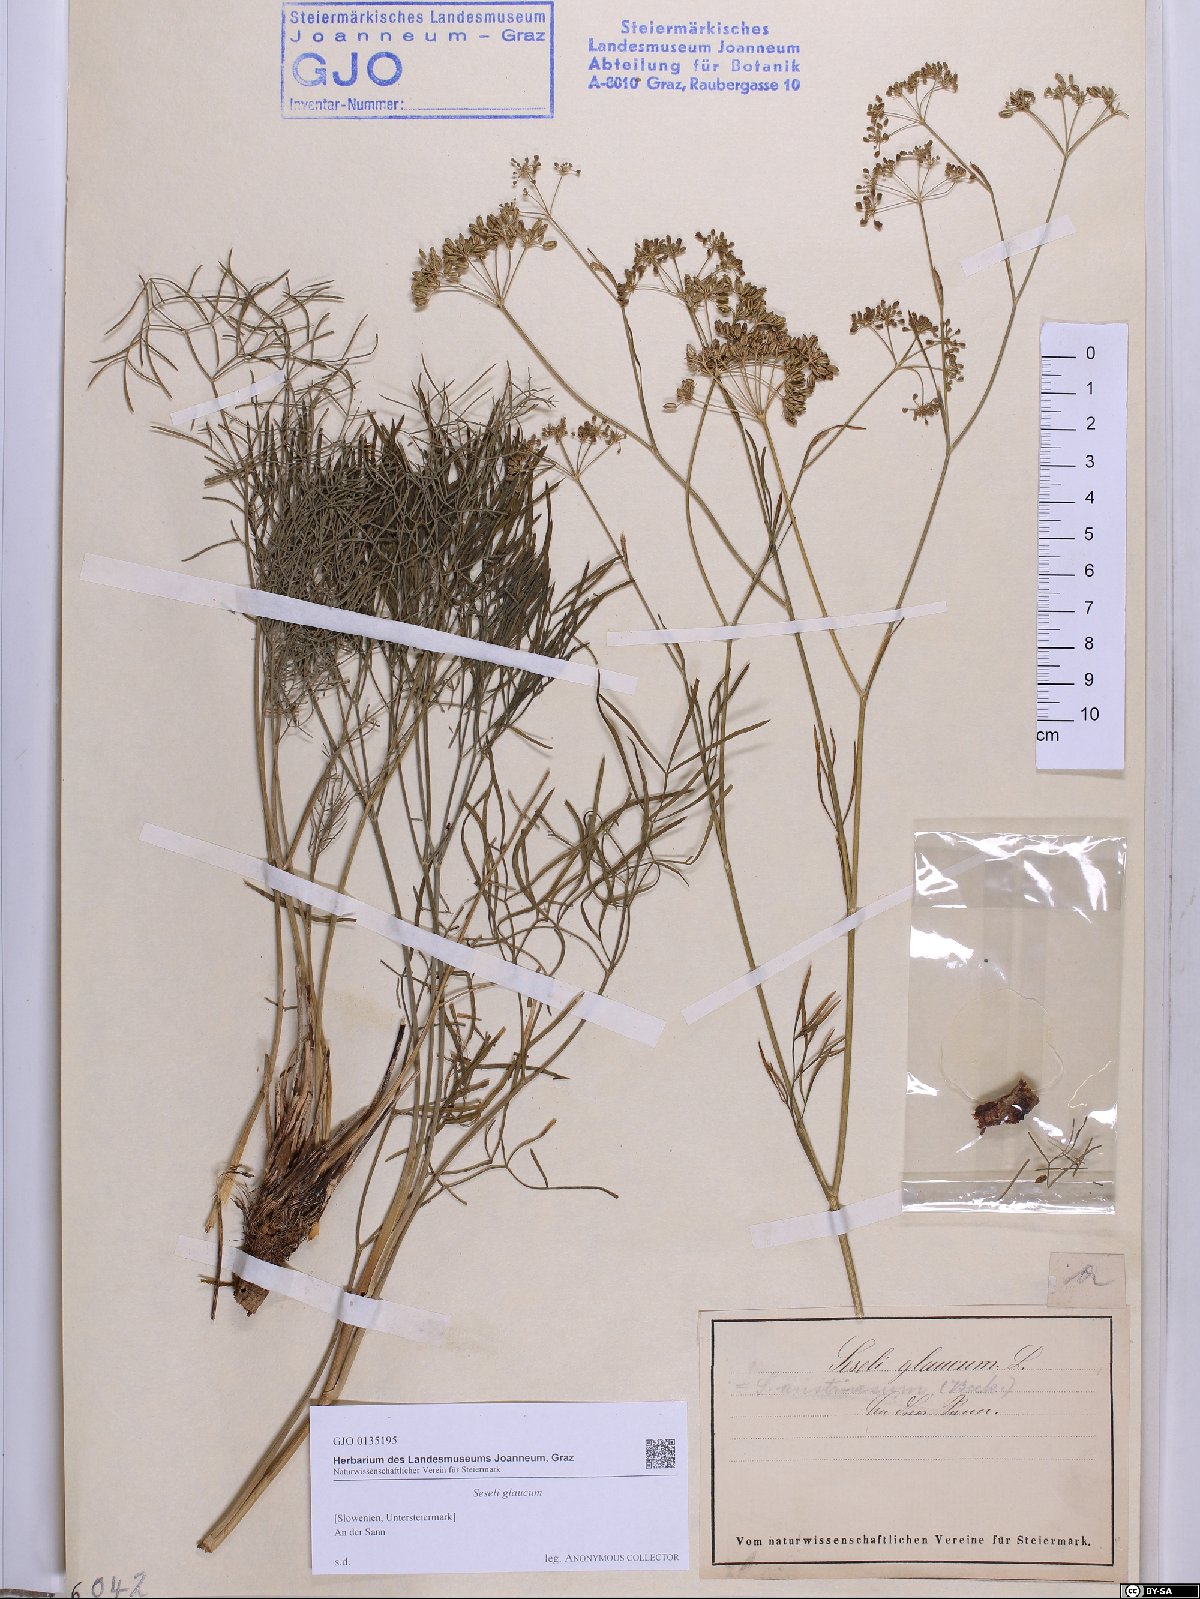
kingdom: Plantae
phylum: Tracheophyta
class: Magnoliopsida
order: Apiales
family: Apiaceae
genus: Seseli
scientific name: Seseli montanum
